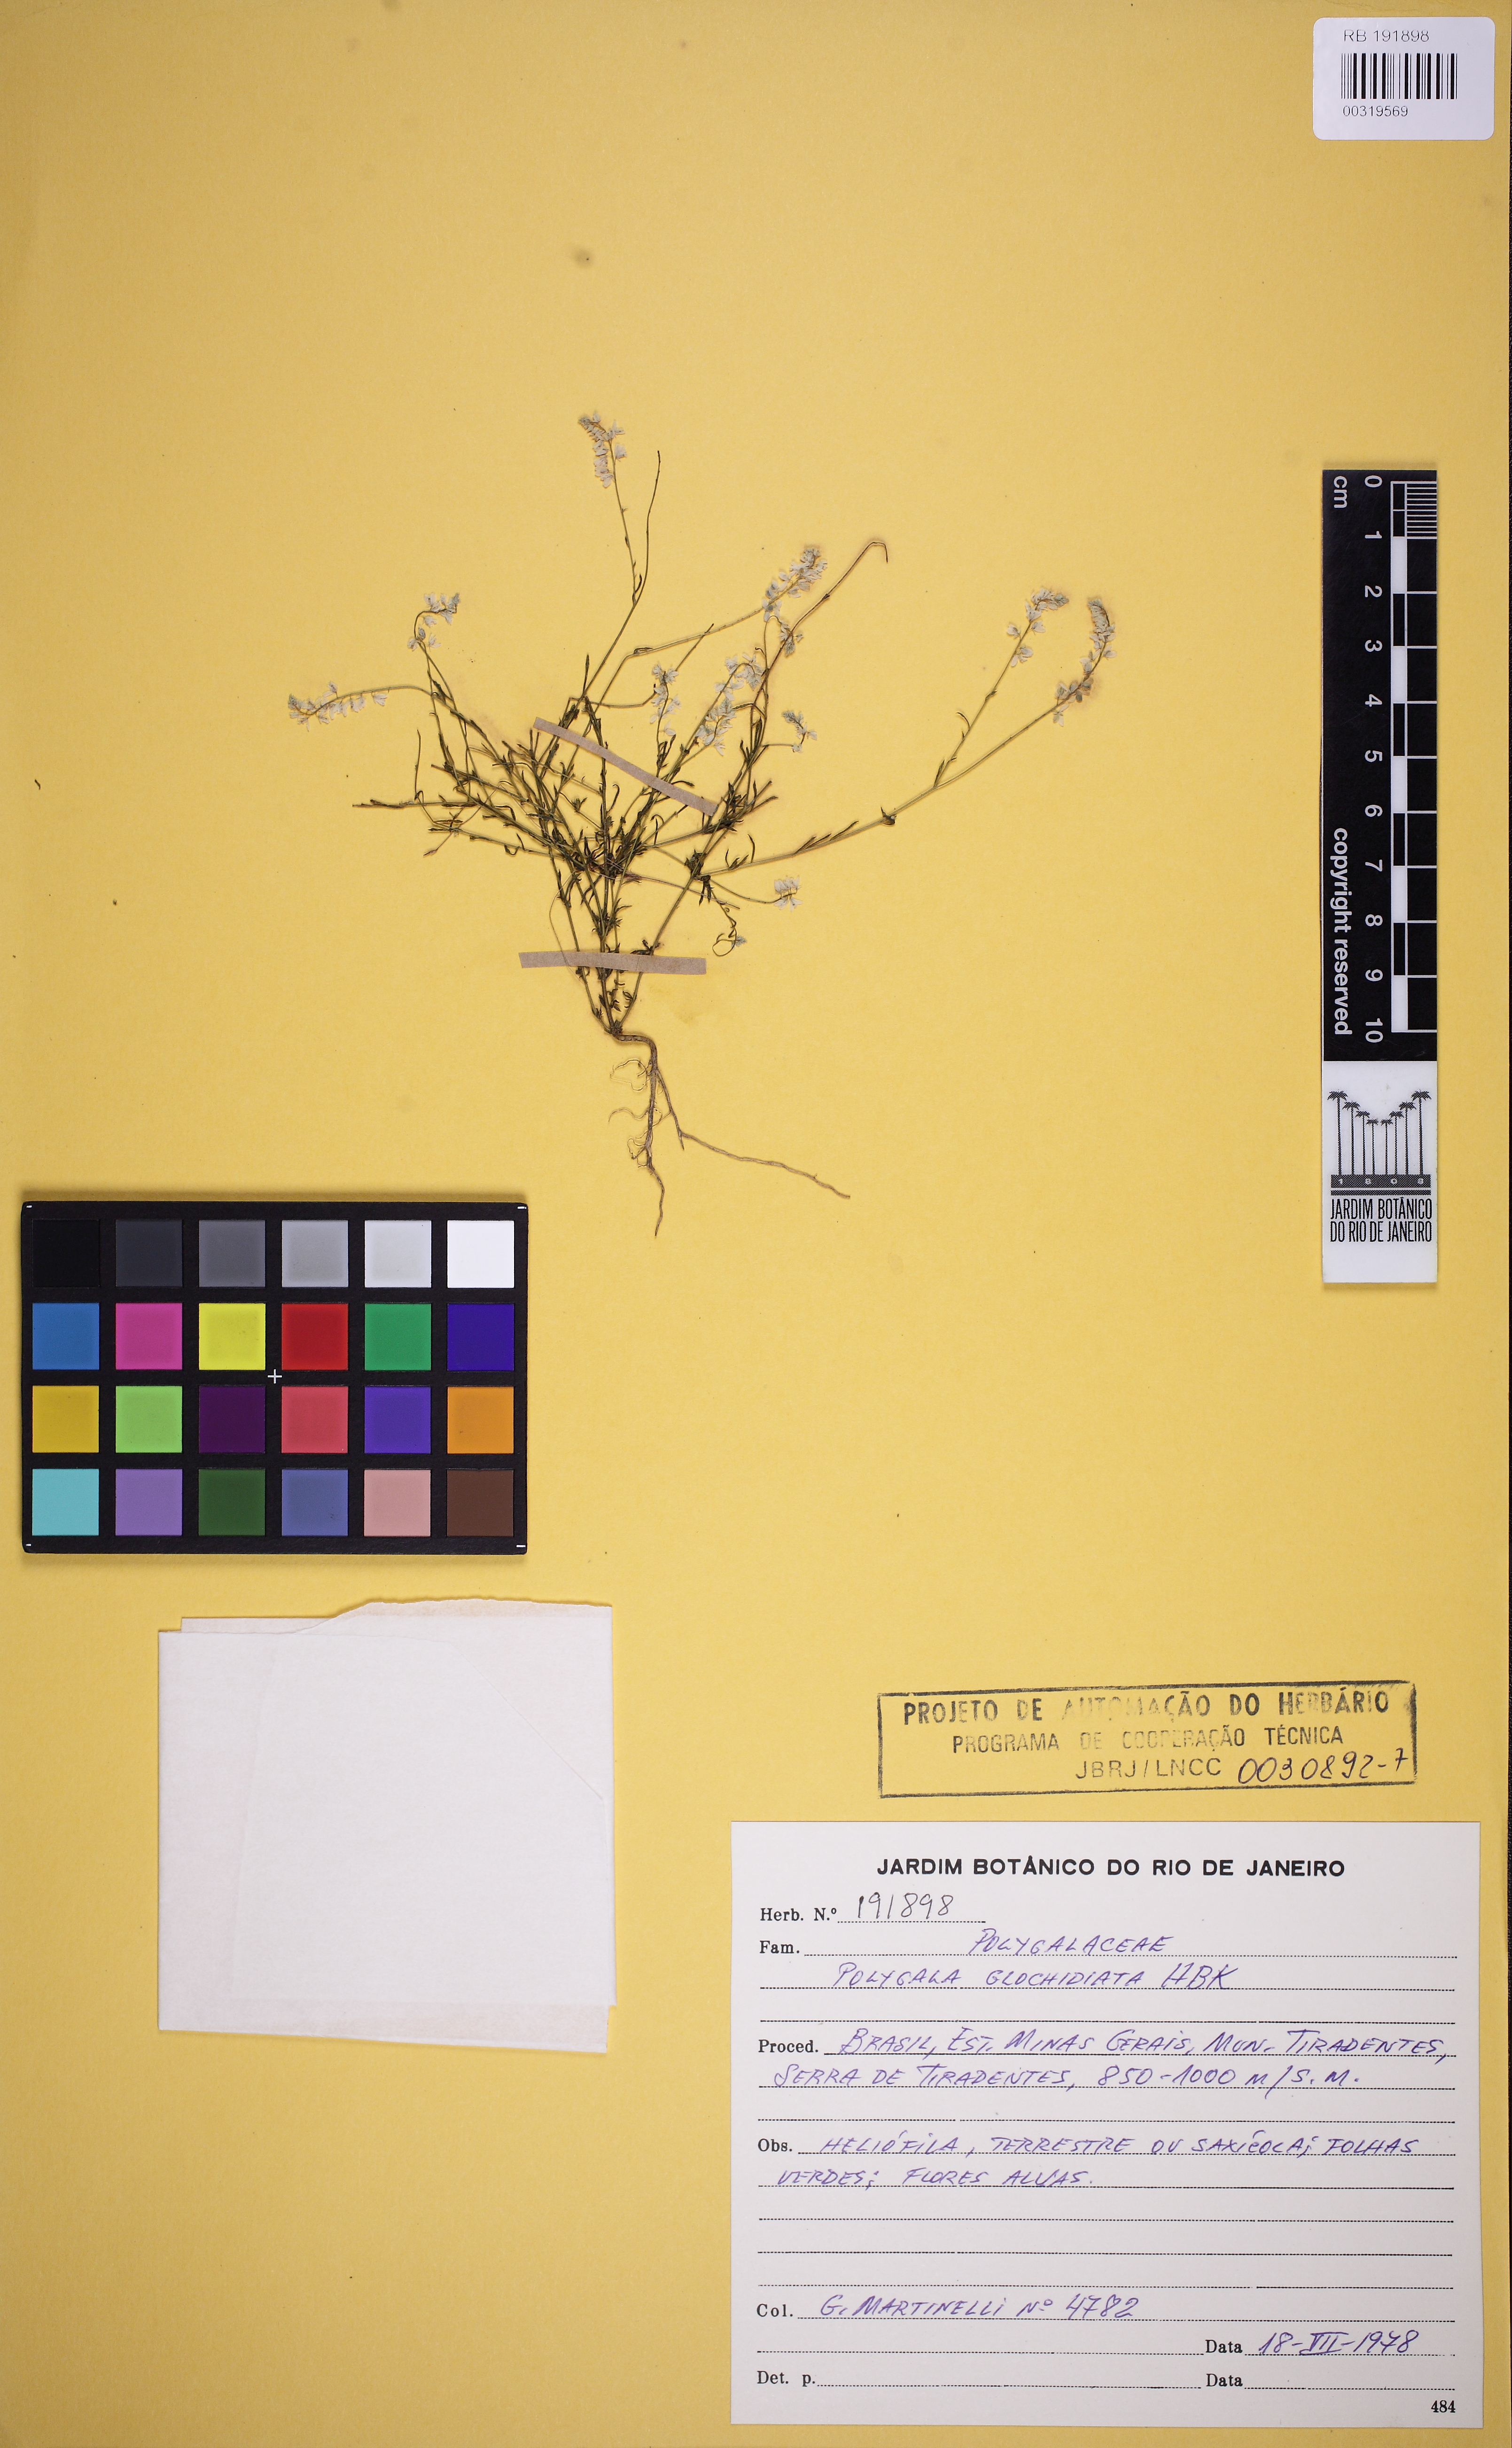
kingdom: Plantae
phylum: Tracheophyta
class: Magnoliopsida
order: Fabales
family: Polygalaceae
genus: Polygala
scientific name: Polygala glochidiata
